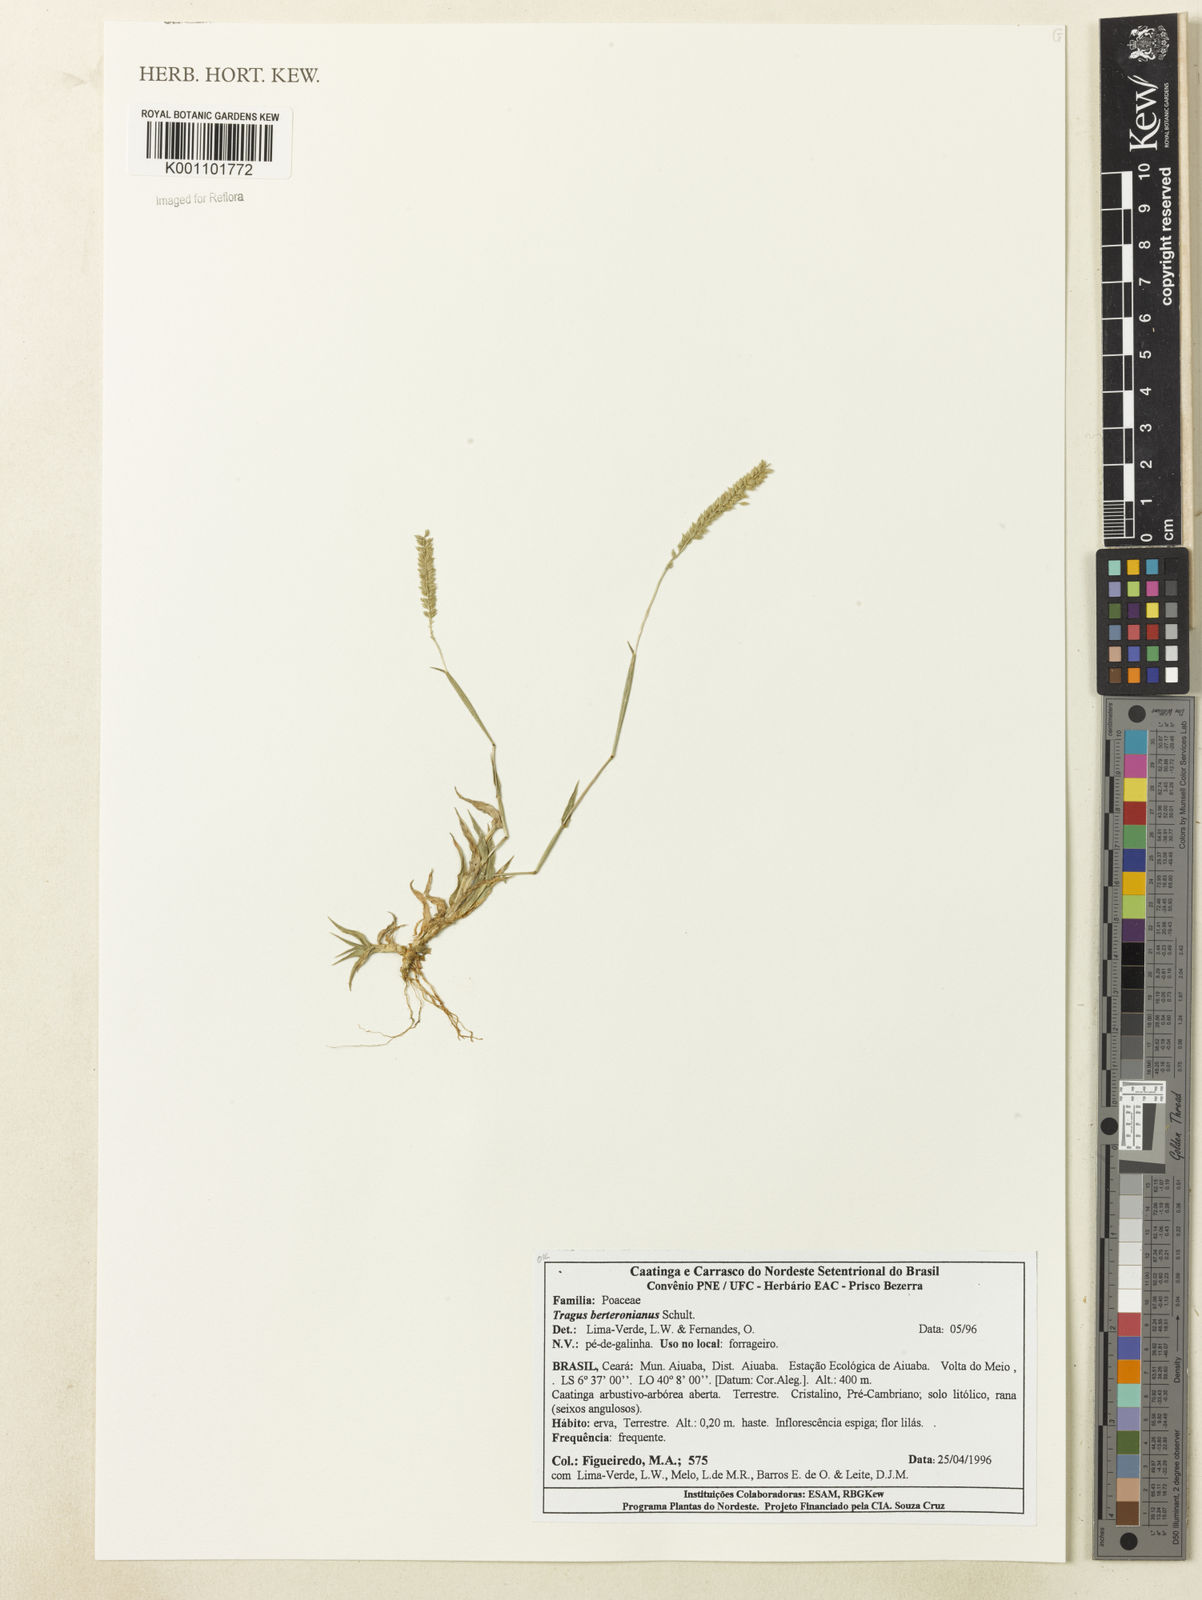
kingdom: Plantae
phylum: Tracheophyta
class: Liliopsida
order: Poales
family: Poaceae
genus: Tragus
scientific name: Tragus berteronianus
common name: African bur-grass
